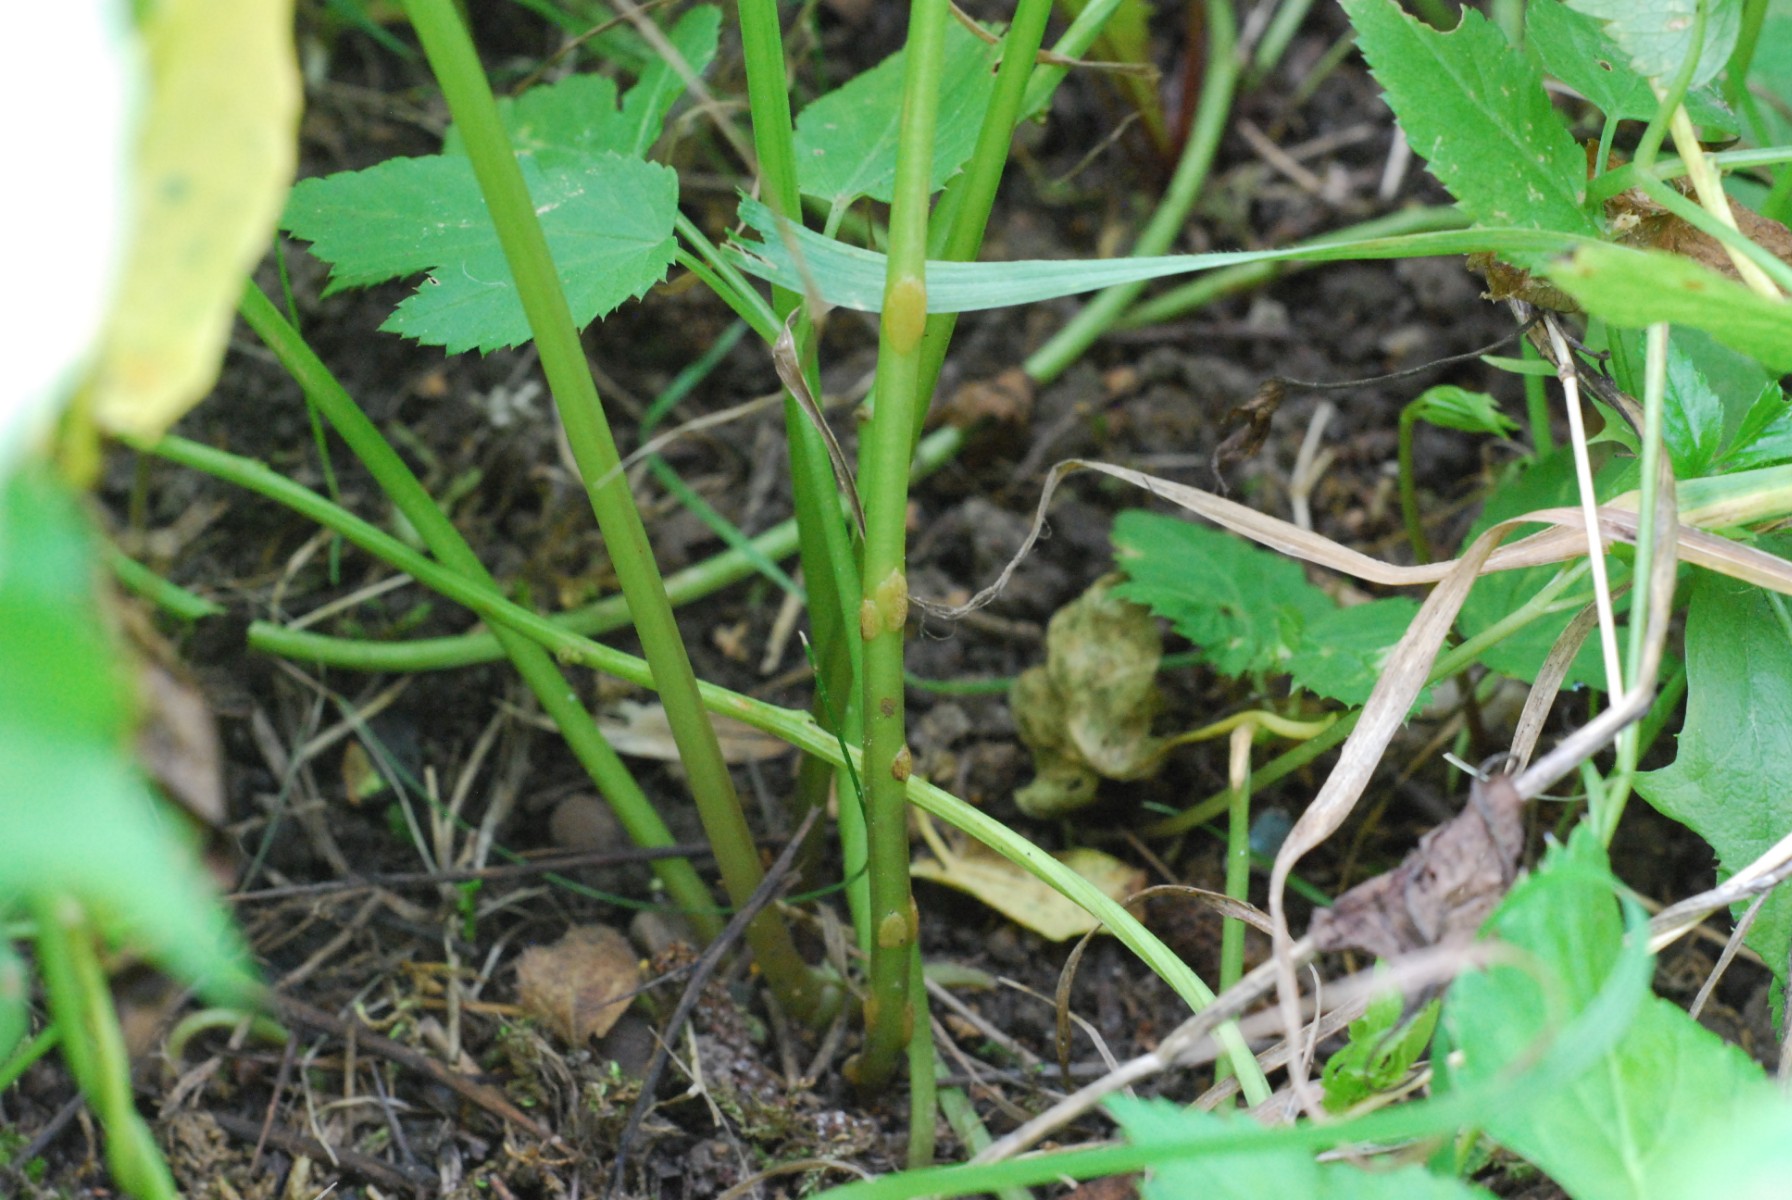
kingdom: Fungi
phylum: Ascomycota
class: Taphrinomycetes
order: Taphrinales
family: Taphrinaceae
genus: Protomyces
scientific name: Protomyces macrosporus
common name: skvalderkål-vablesæk
